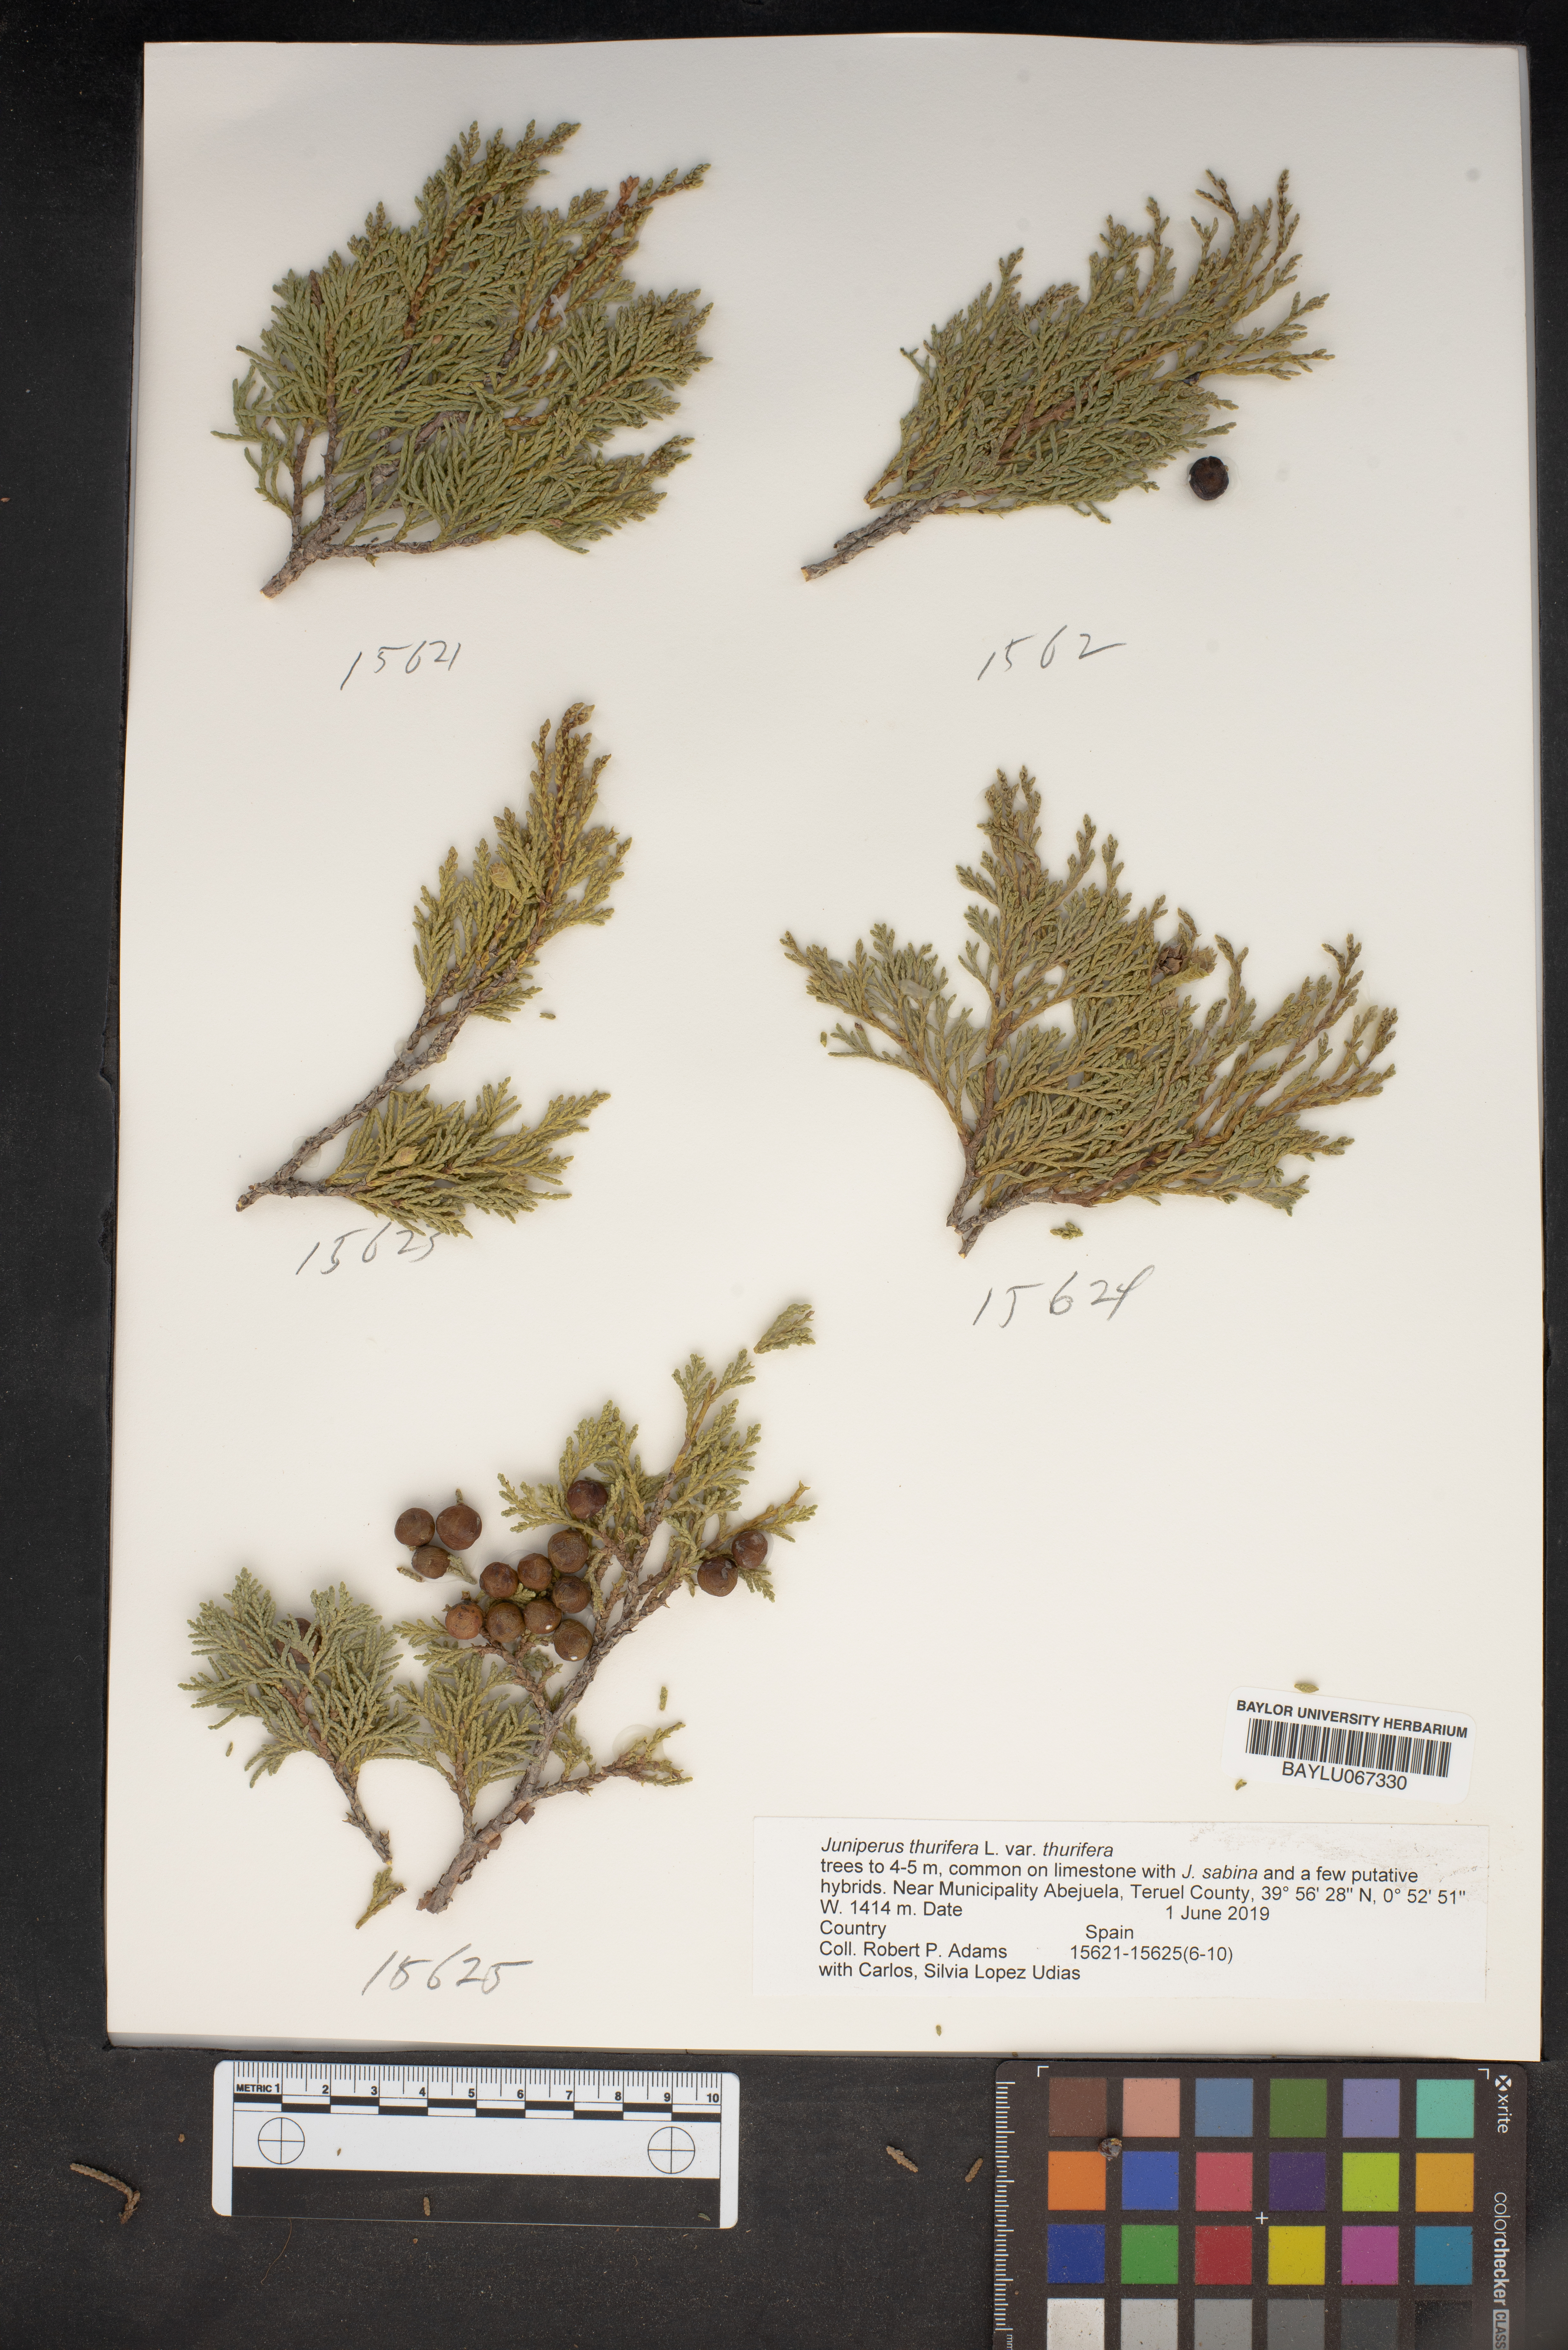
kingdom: Plantae
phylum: Tracheophyta
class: Pinopsida
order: Pinales
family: Cupressaceae
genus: Juniperus
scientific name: Juniperus thurifera
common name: Incense juniper
